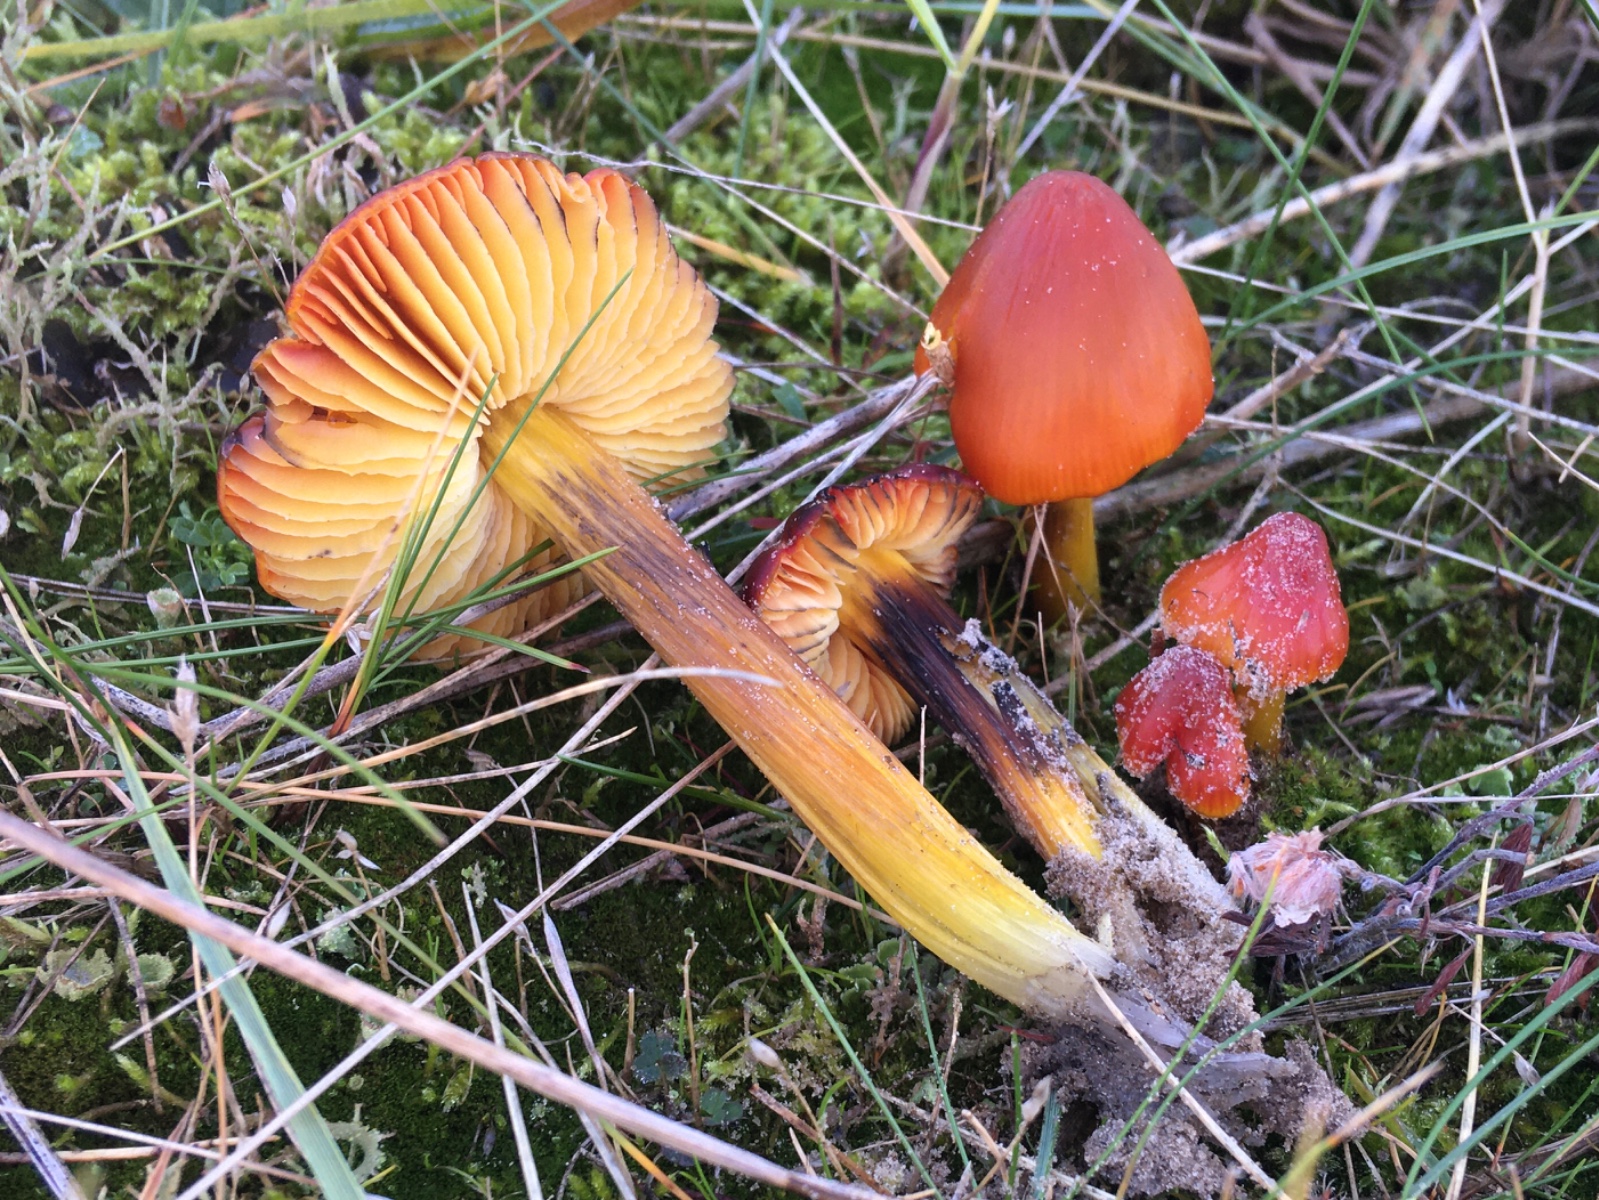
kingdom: Fungi
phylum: Basidiomycota
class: Agaricomycetes
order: Agaricales
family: Hygrophoraceae
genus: Hygrocybe
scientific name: Hygrocybe conicoides
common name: klit-vokshat
